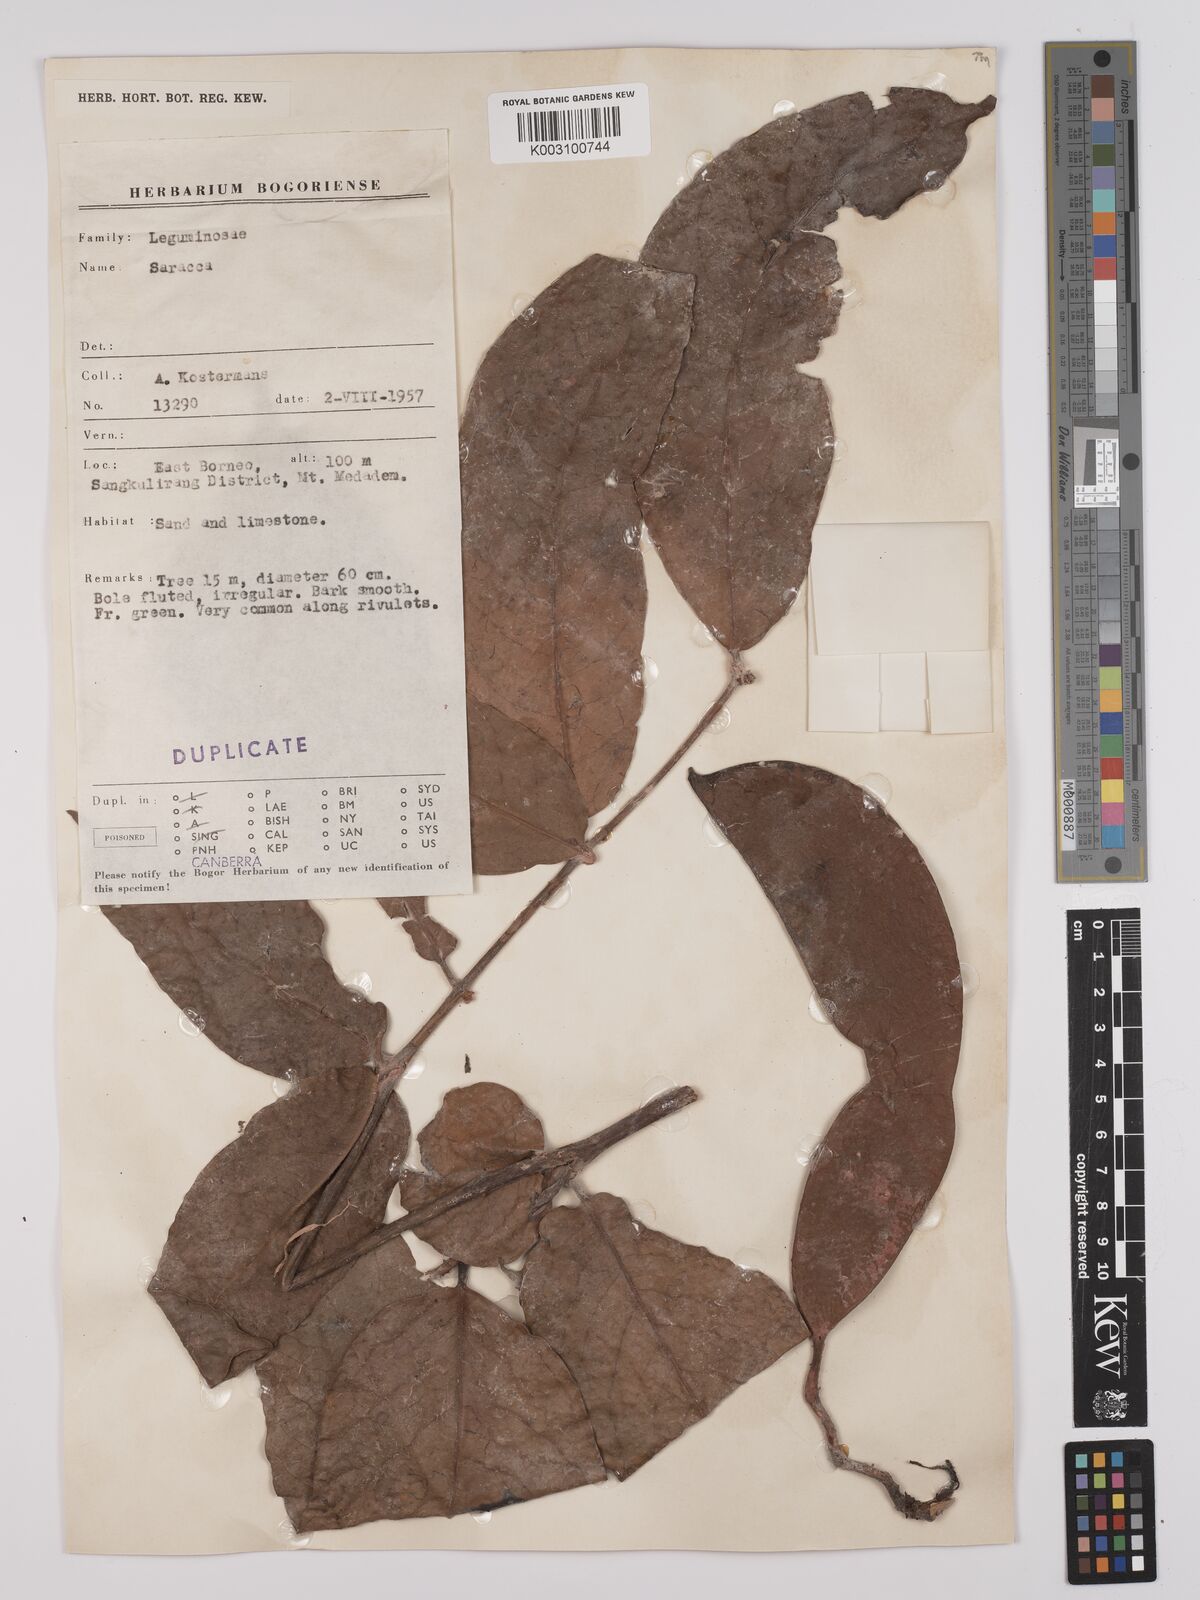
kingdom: Plantae
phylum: Tracheophyta
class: Magnoliopsida
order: Fabales
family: Fabaceae
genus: Saraca
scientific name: Saraca declinata
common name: Red saraca
